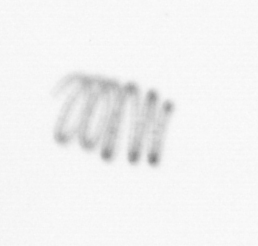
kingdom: Chromista
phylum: Ochrophyta
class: Bacillariophyceae
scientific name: Bacillariophyceae
